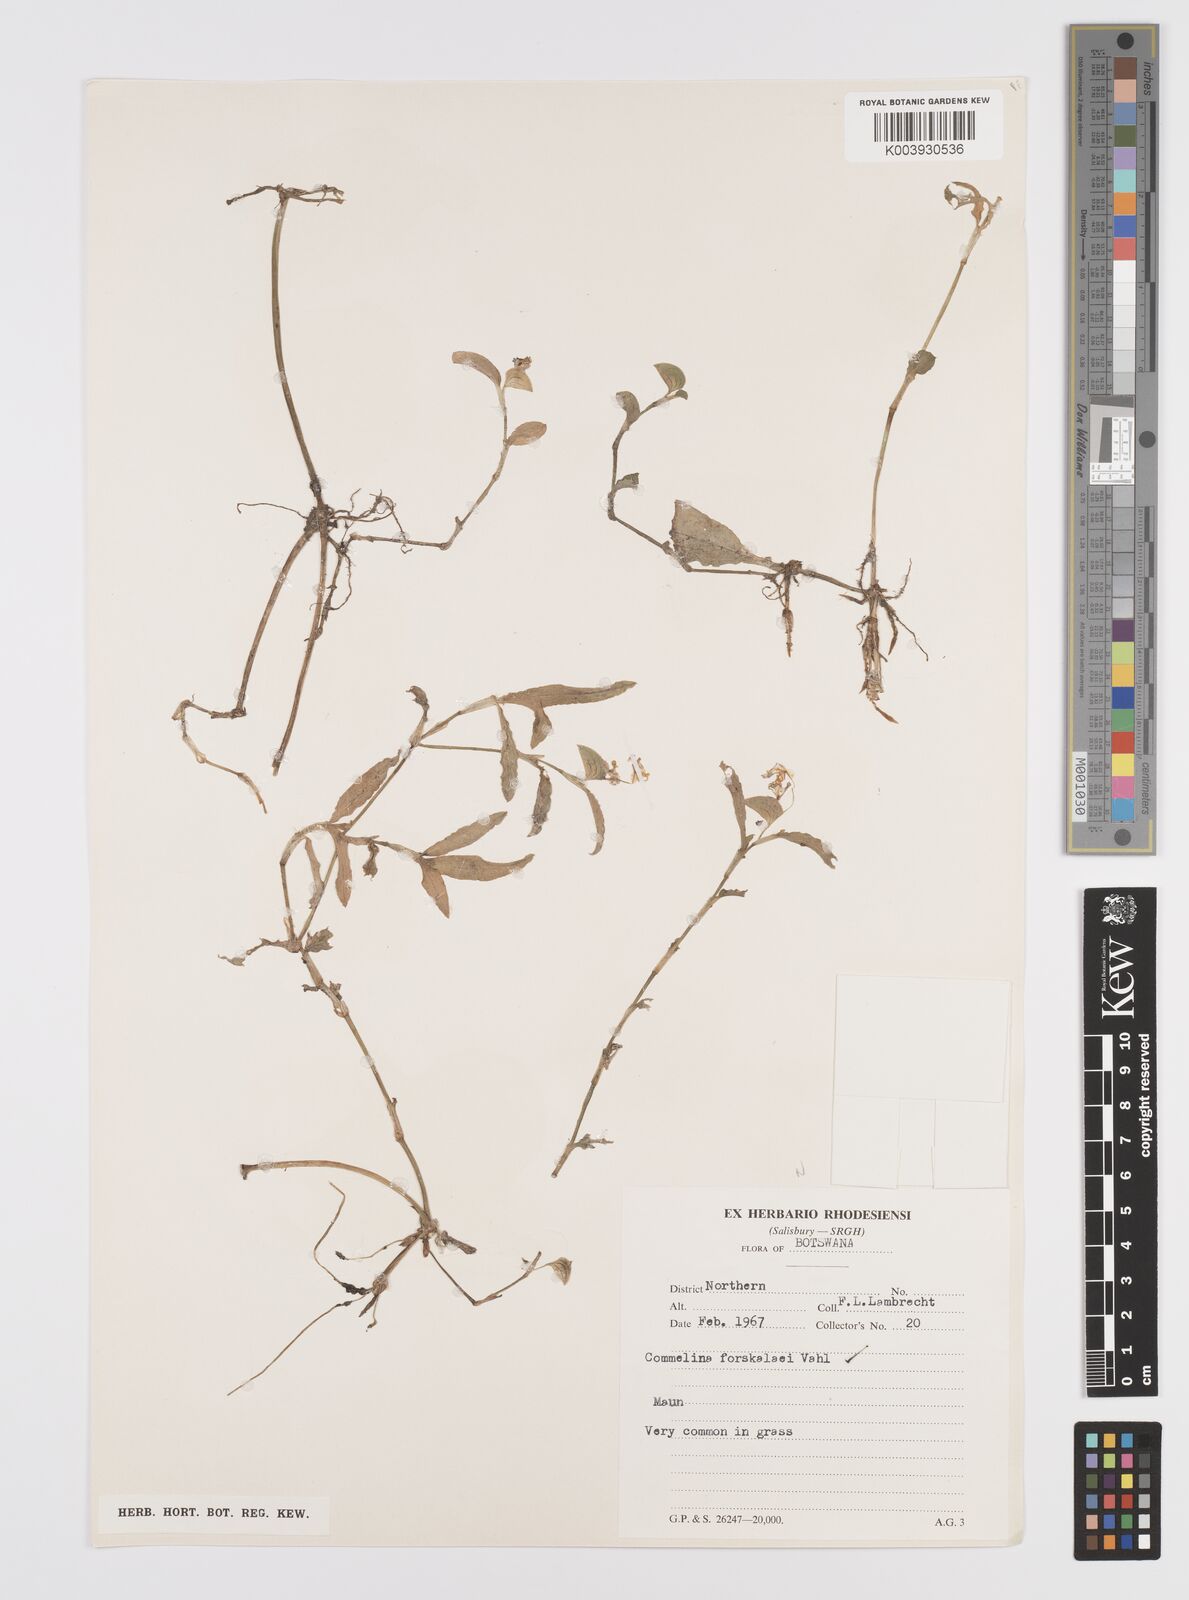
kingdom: Plantae
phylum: Tracheophyta
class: Liliopsida
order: Commelinales
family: Commelinaceae
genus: Commelina
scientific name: Commelina forskaolii
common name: Rat's ear
